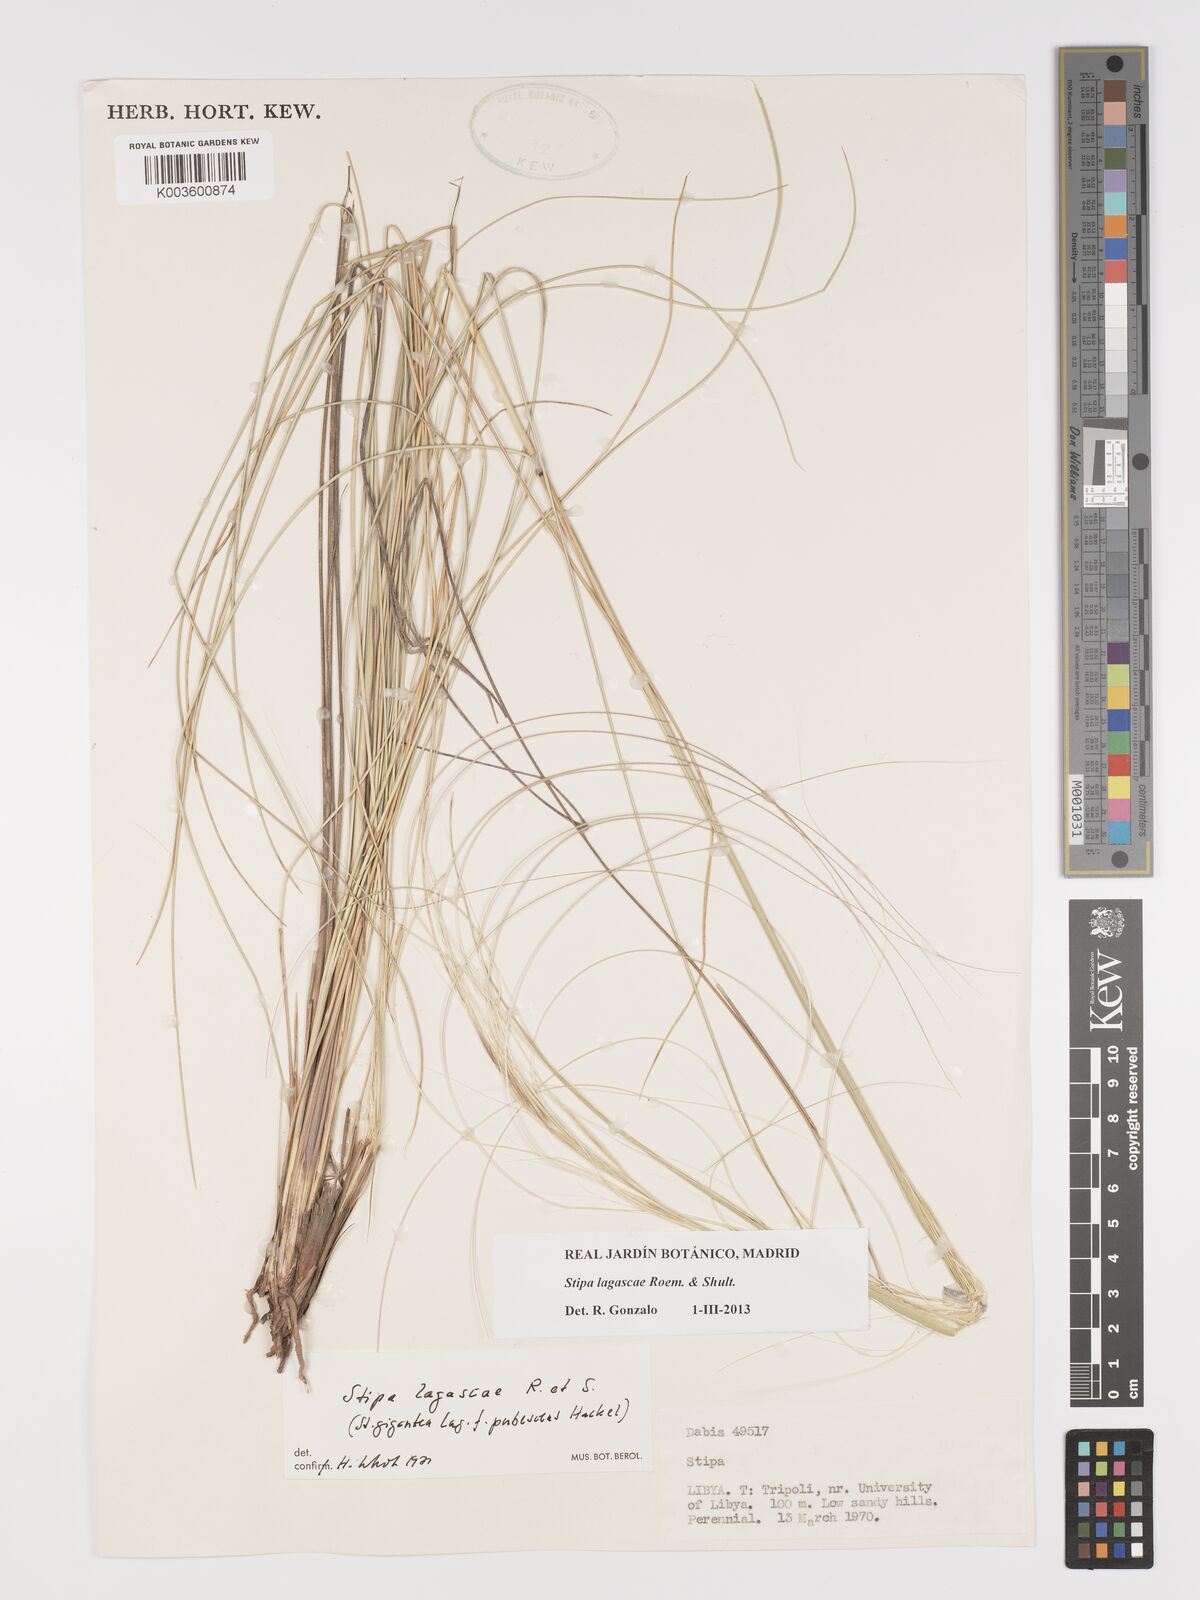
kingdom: Plantae
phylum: Tracheophyta
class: Liliopsida
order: Poales
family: Poaceae
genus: Stipa
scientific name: Stipa lagascae
